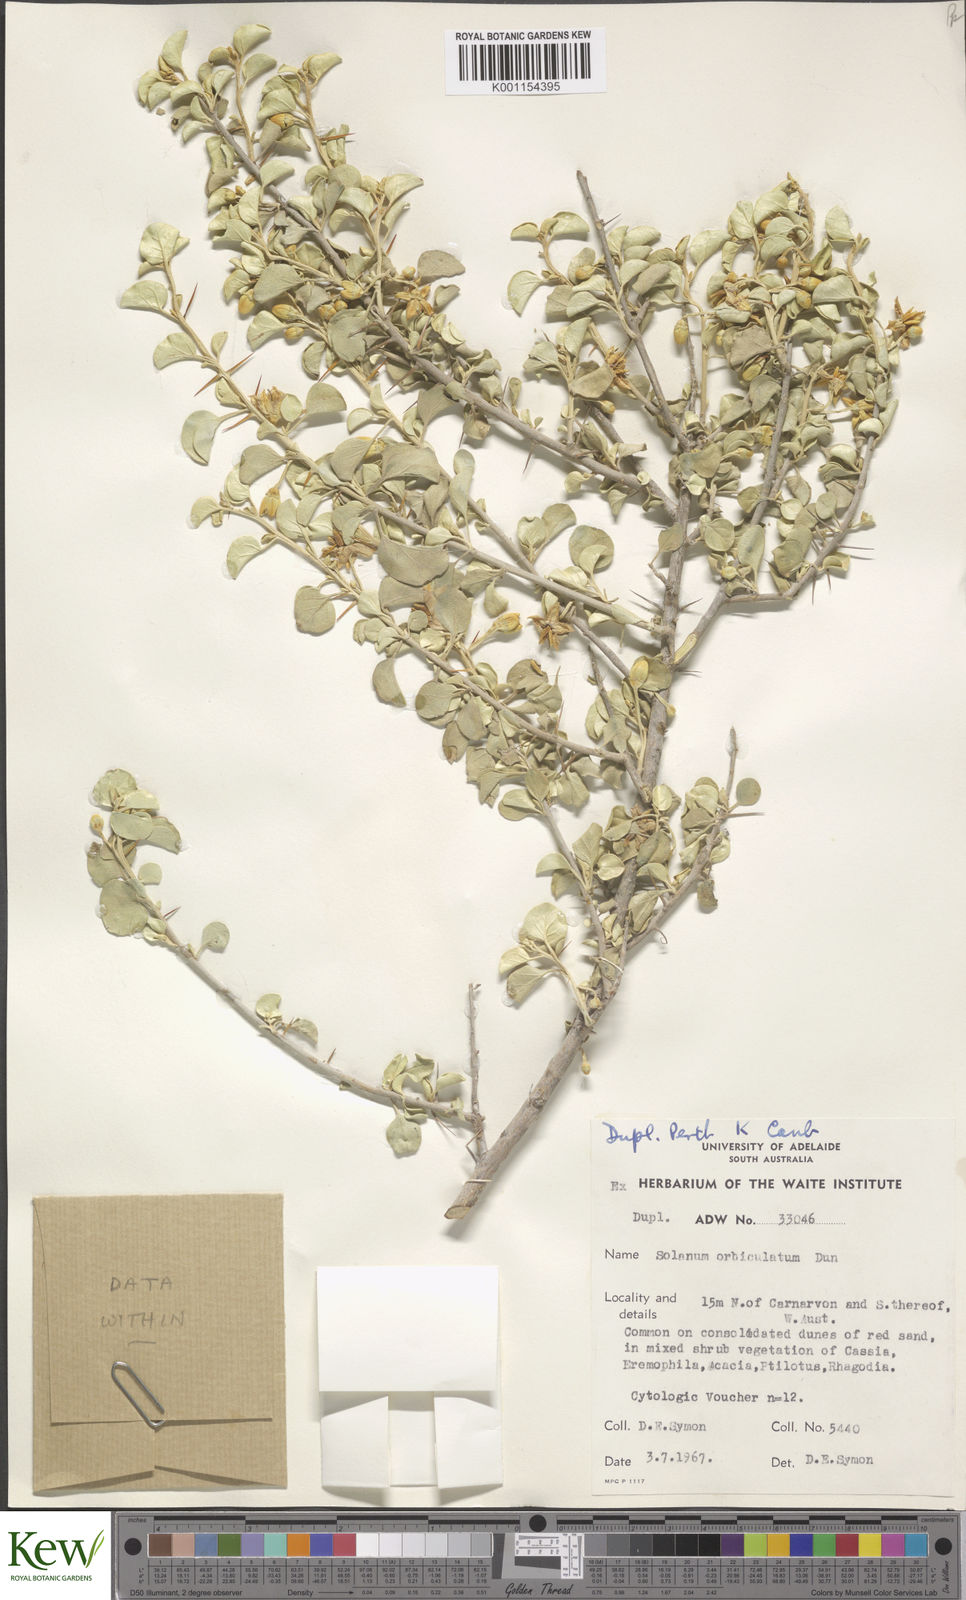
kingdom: Plantae
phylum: Tracheophyta
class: Magnoliopsida
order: Solanales
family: Solanaceae
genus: Solanum
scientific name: Solanum orbiculatum
